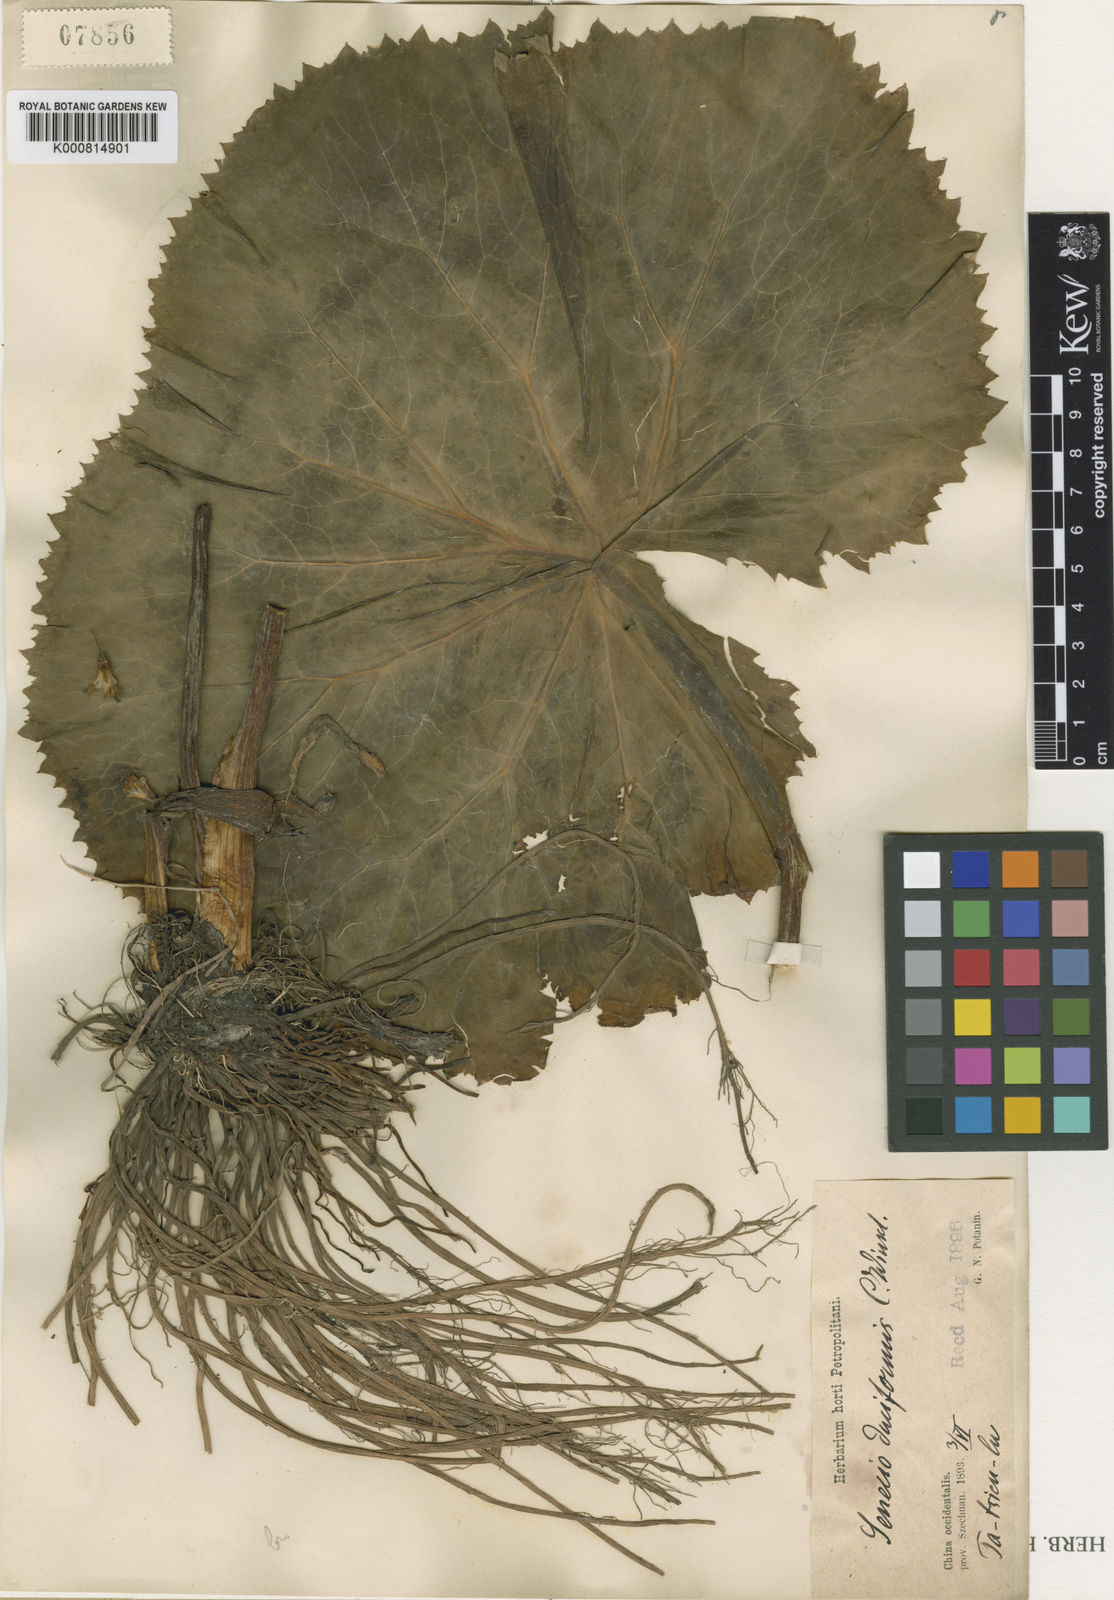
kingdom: Plantae
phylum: Tracheophyta
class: Magnoliopsida
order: Asterales
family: Asteraceae
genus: Ligularia
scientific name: Ligularia duciformis
